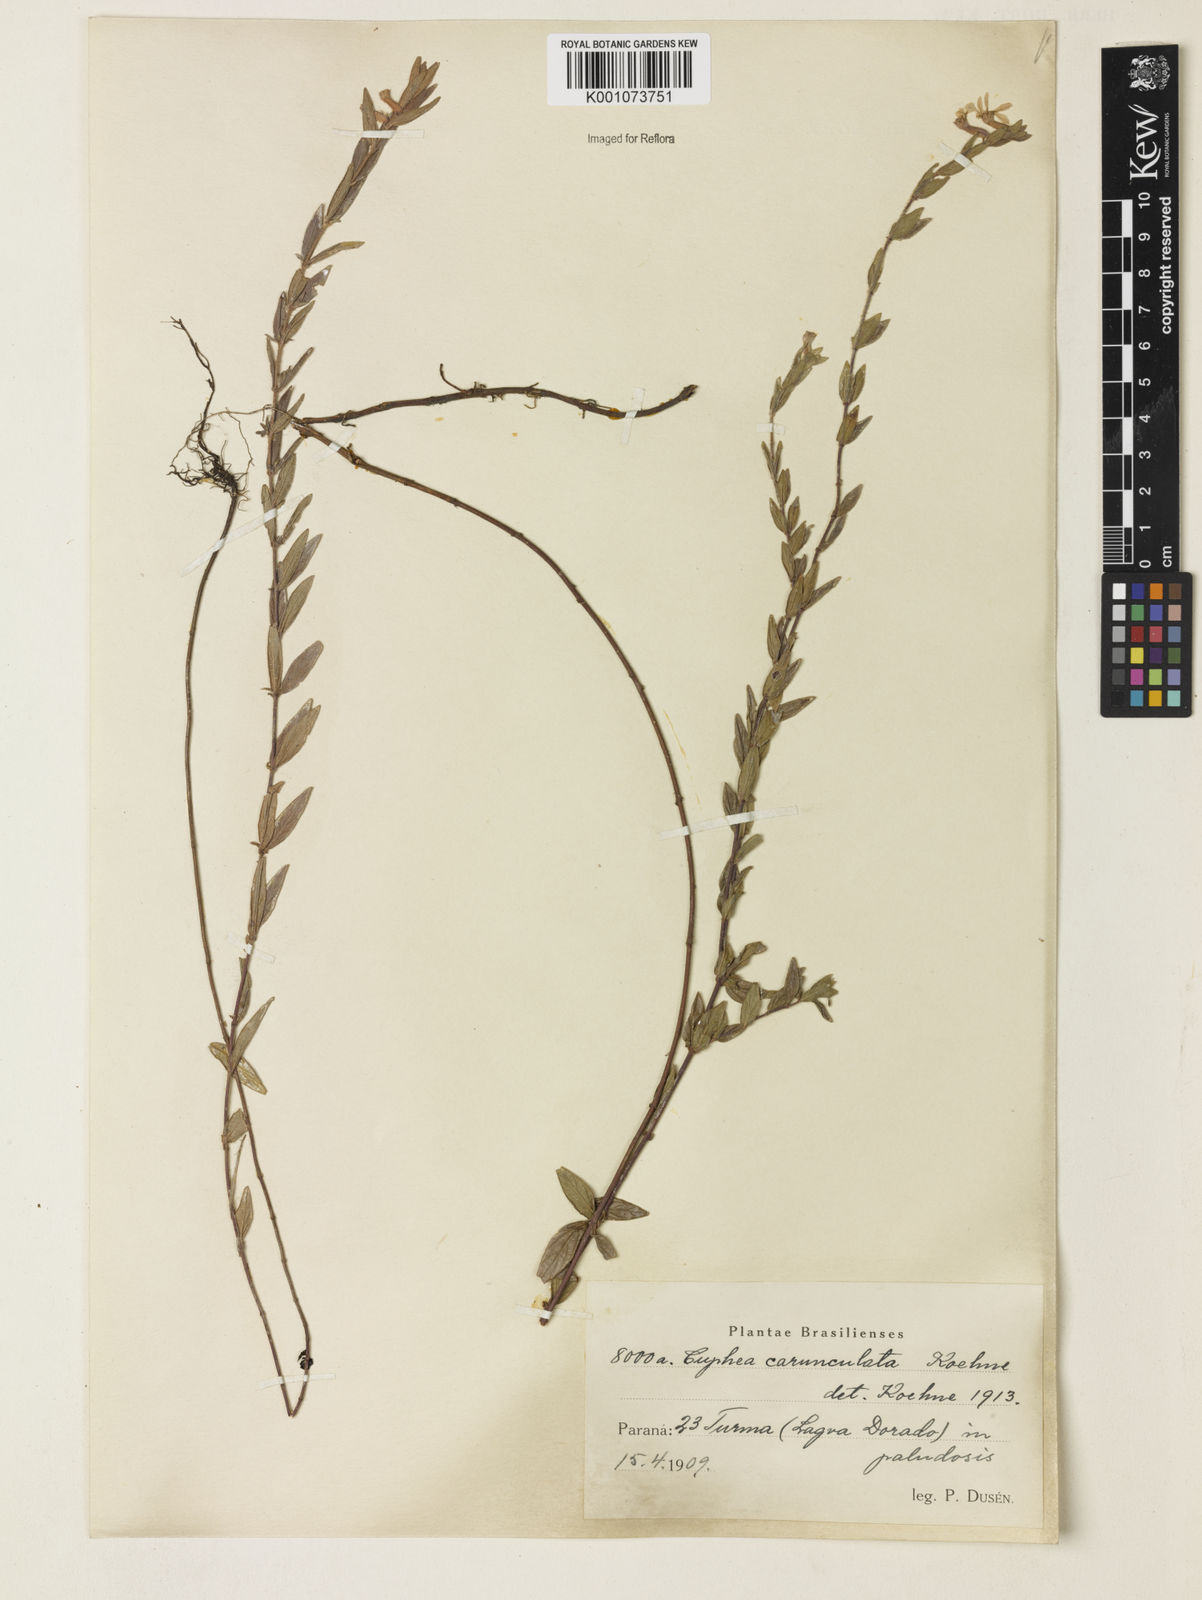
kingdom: Plantae
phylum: Tracheophyta
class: Magnoliopsida
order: Myrtales
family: Lythraceae
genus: Cuphea
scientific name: Cuphea urbaniana
